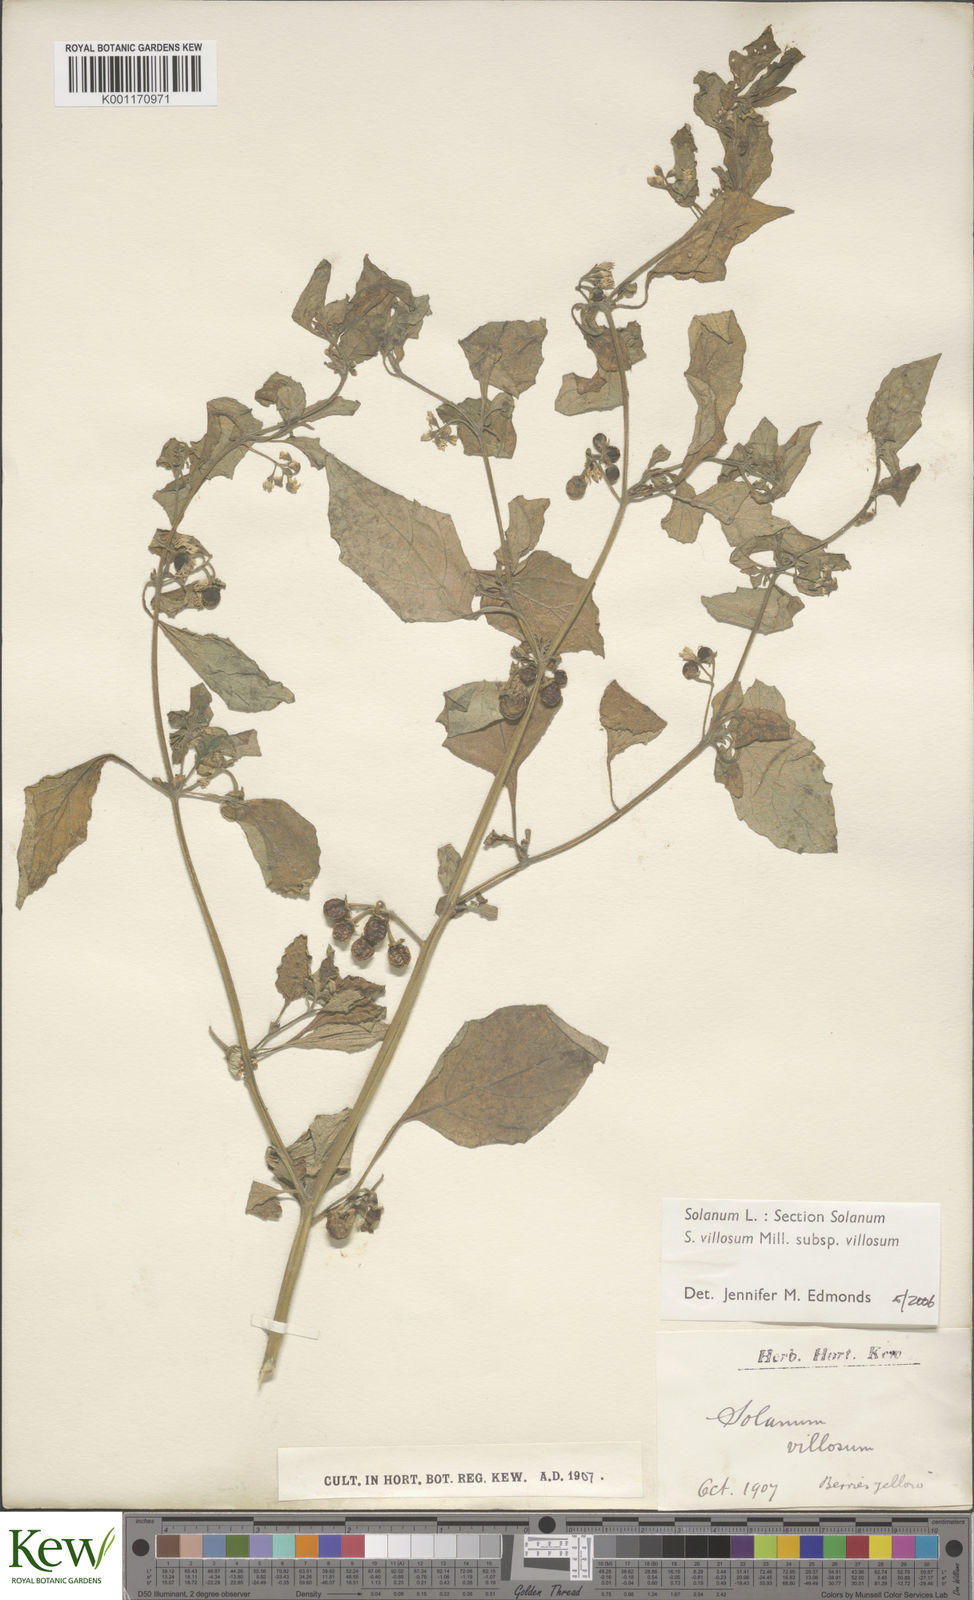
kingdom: Plantae
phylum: Tracheophyta
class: Magnoliopsida
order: Solanales
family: Solanaceae
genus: Solanum
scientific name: Solanum villosum
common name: Red nightshade
